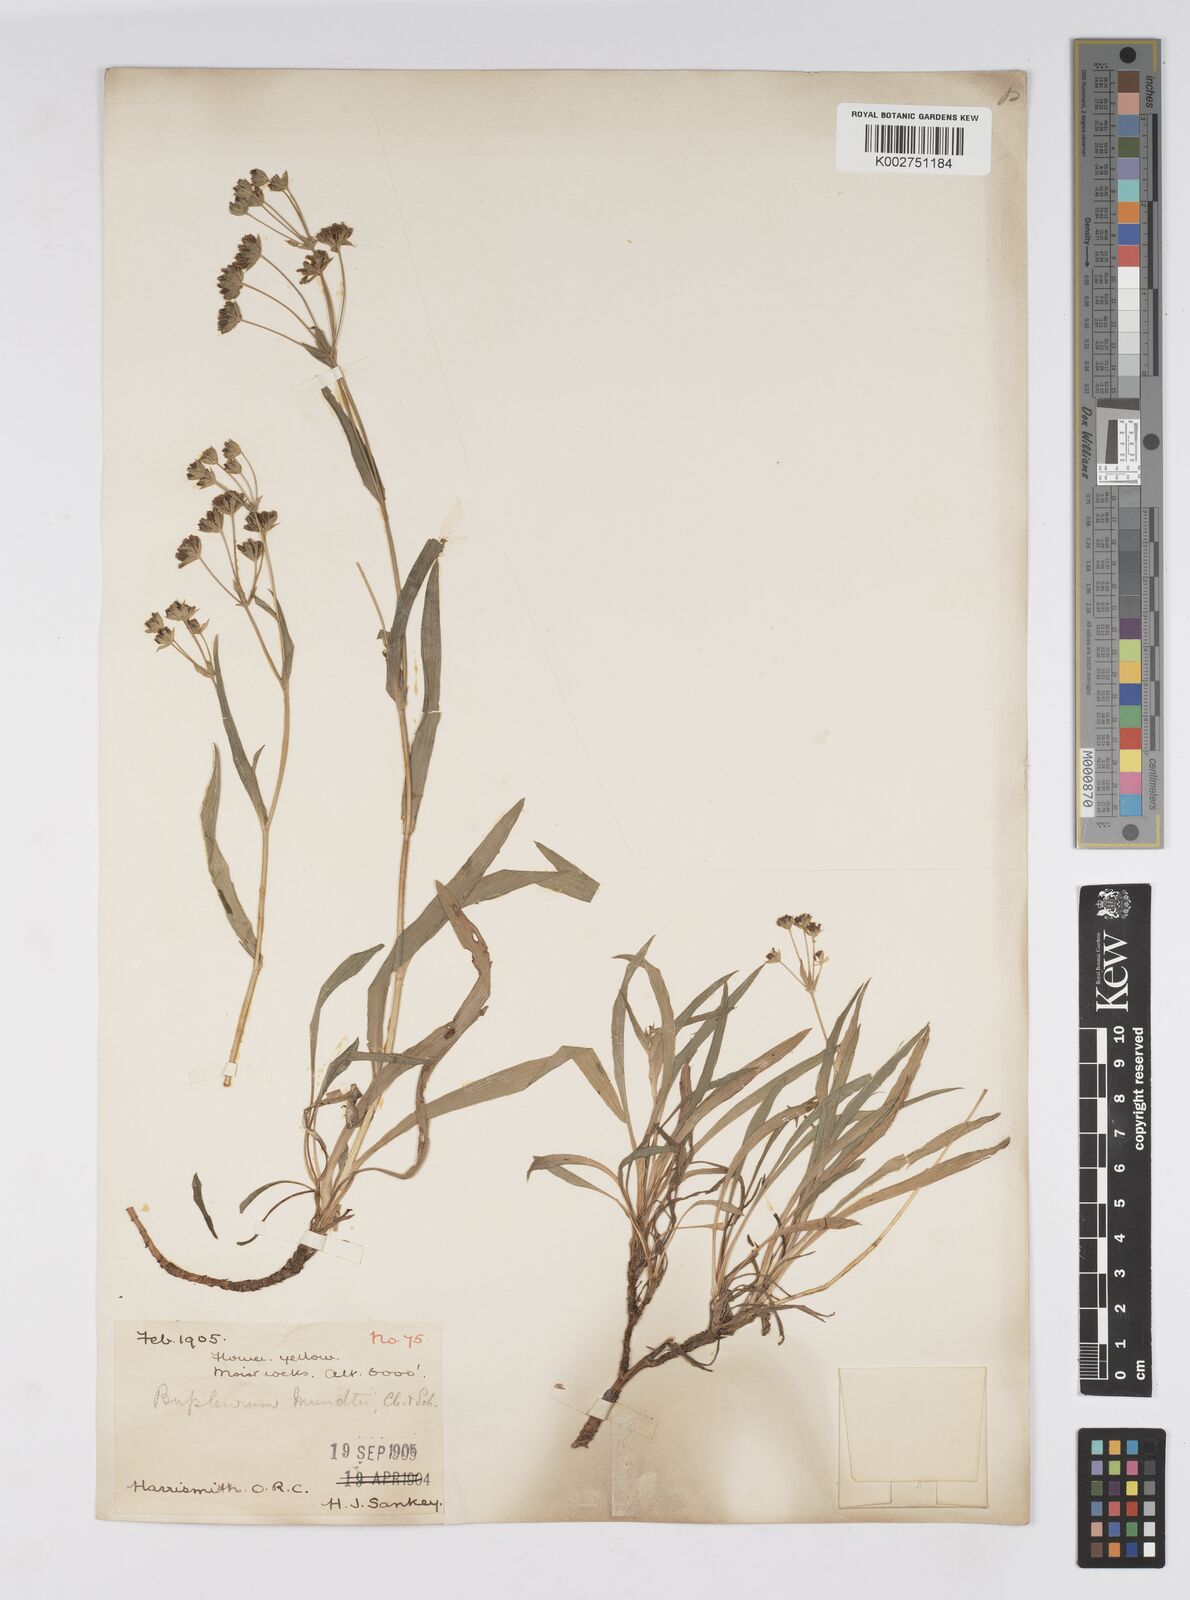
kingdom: Plantae
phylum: Tracheophyta
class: Magnoliopsida
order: Apiales
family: Apiaceae
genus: Bupleurum
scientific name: Bupleurum mundii
